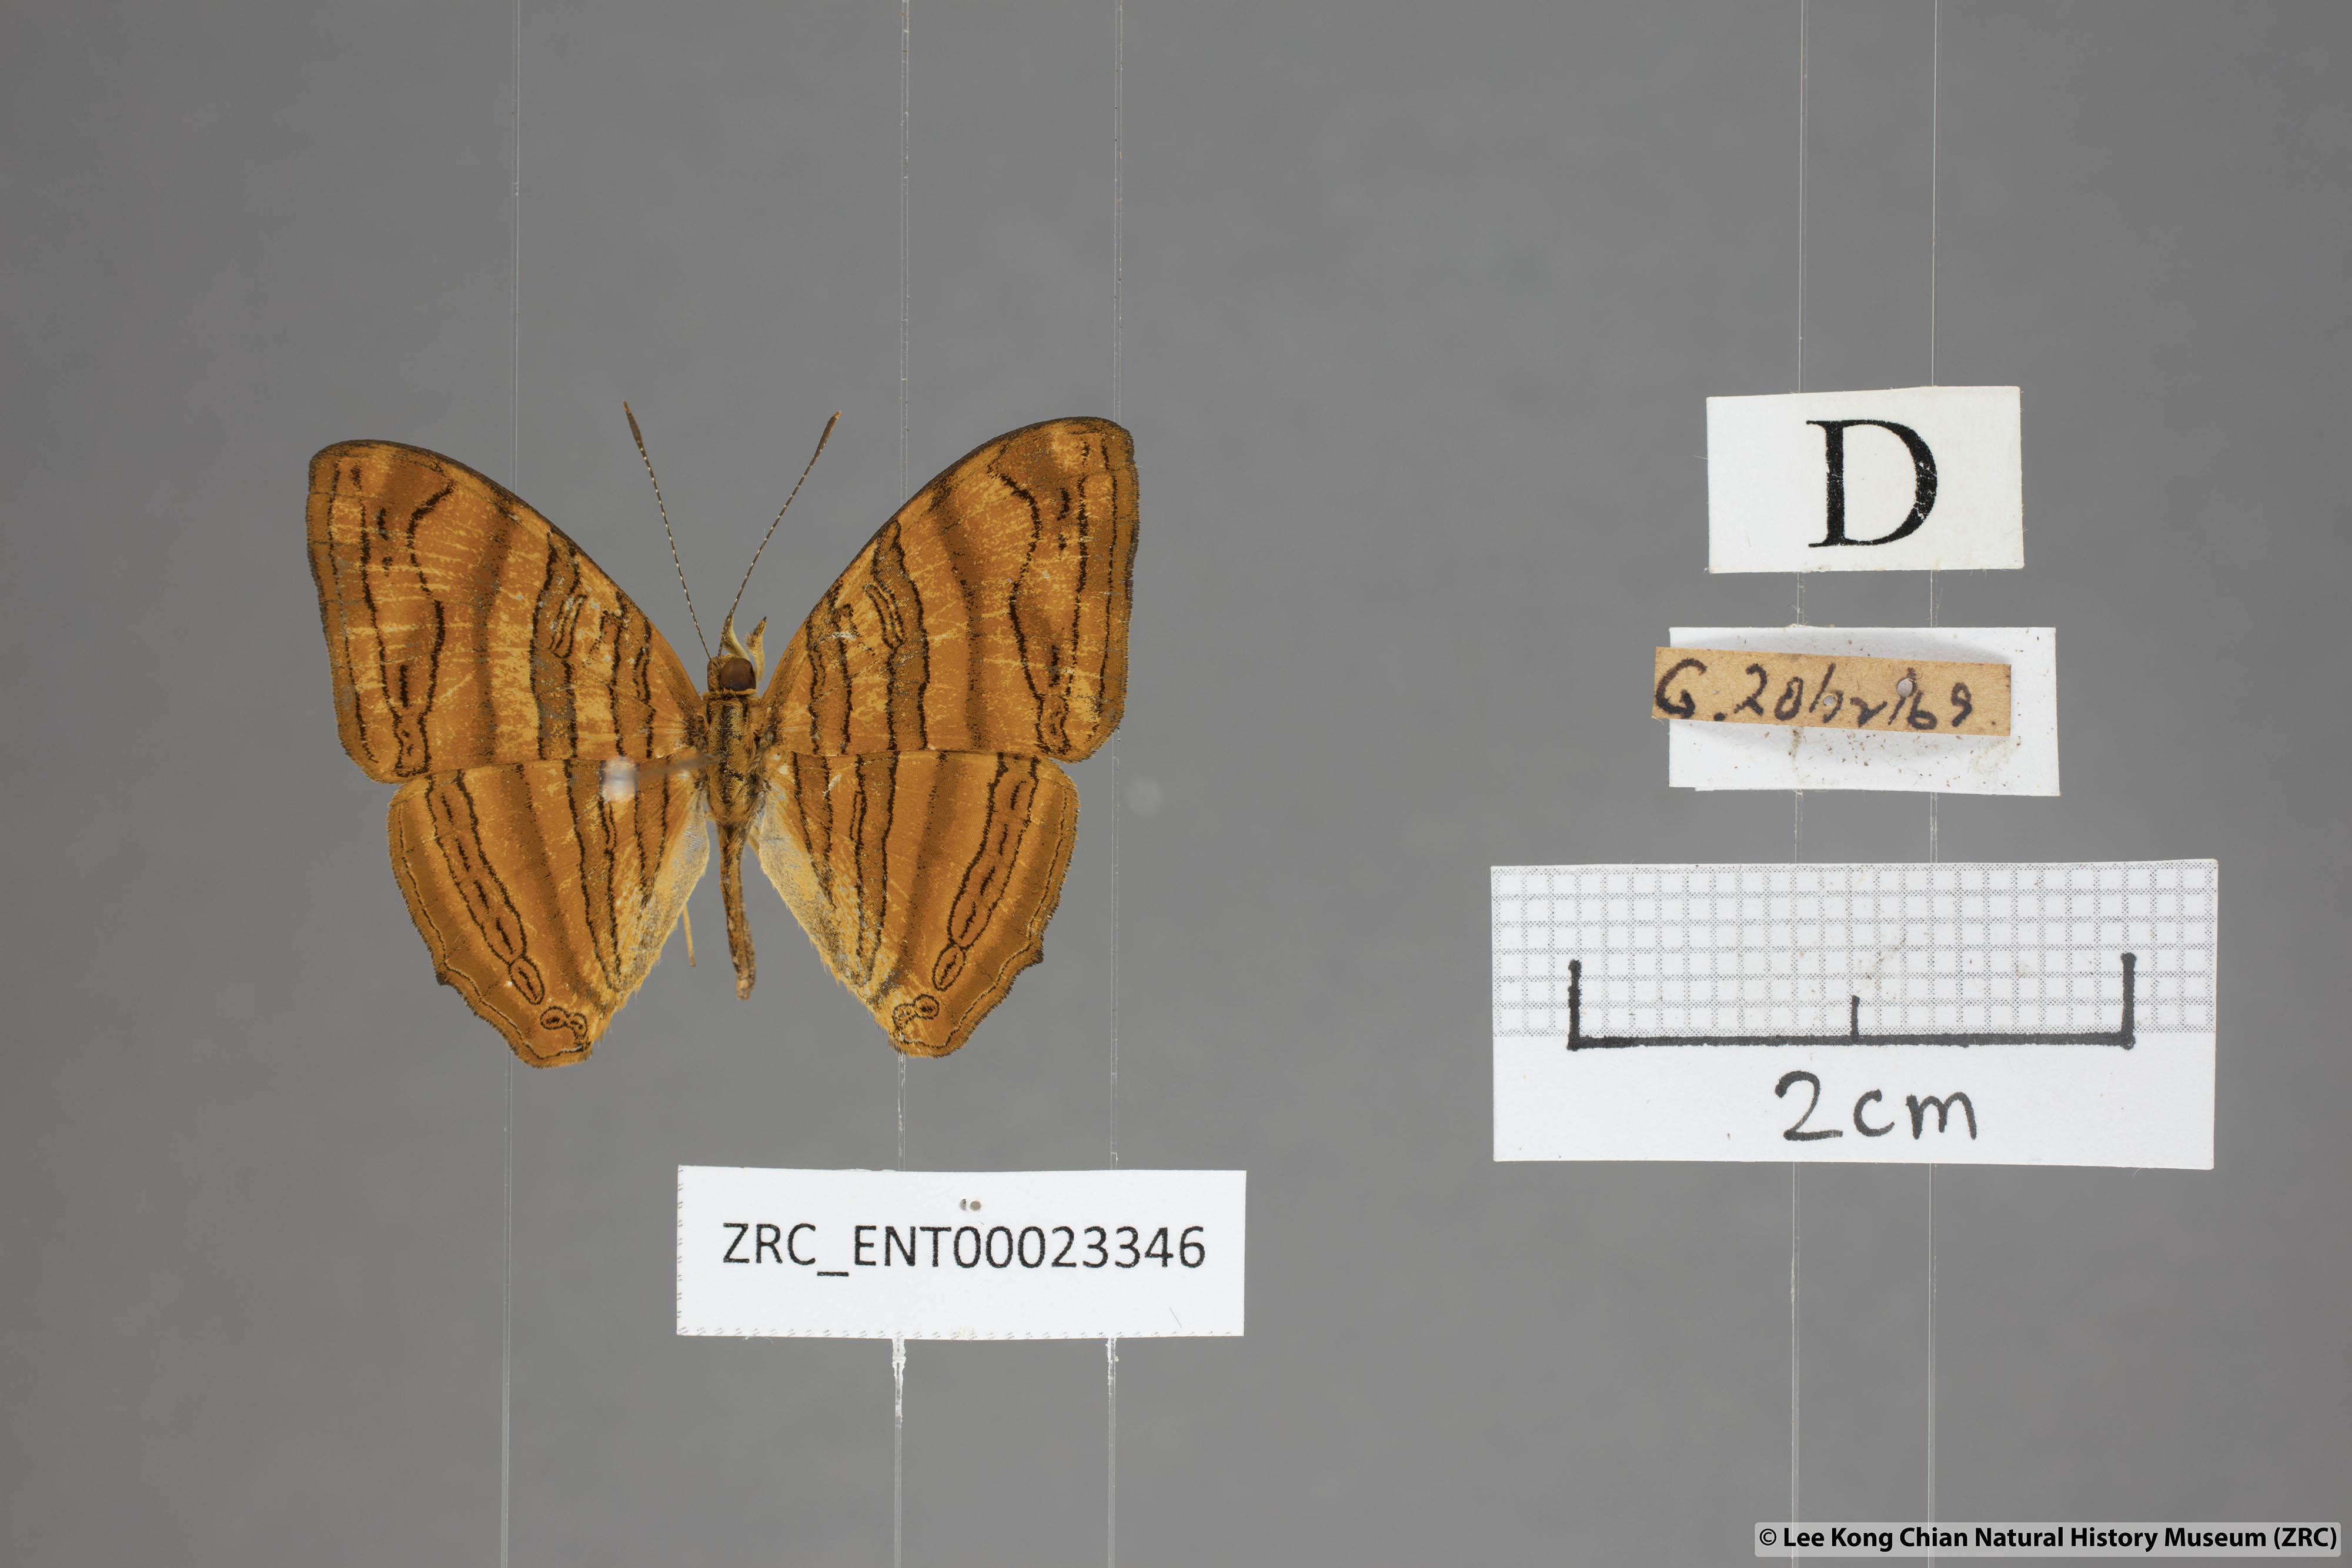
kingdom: Animalia
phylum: Arthropoda
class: Insecta
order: Lepidoptera
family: Nymphalidae
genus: Chersonesia
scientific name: Chersonesia intermedia
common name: Intermediate maplet
